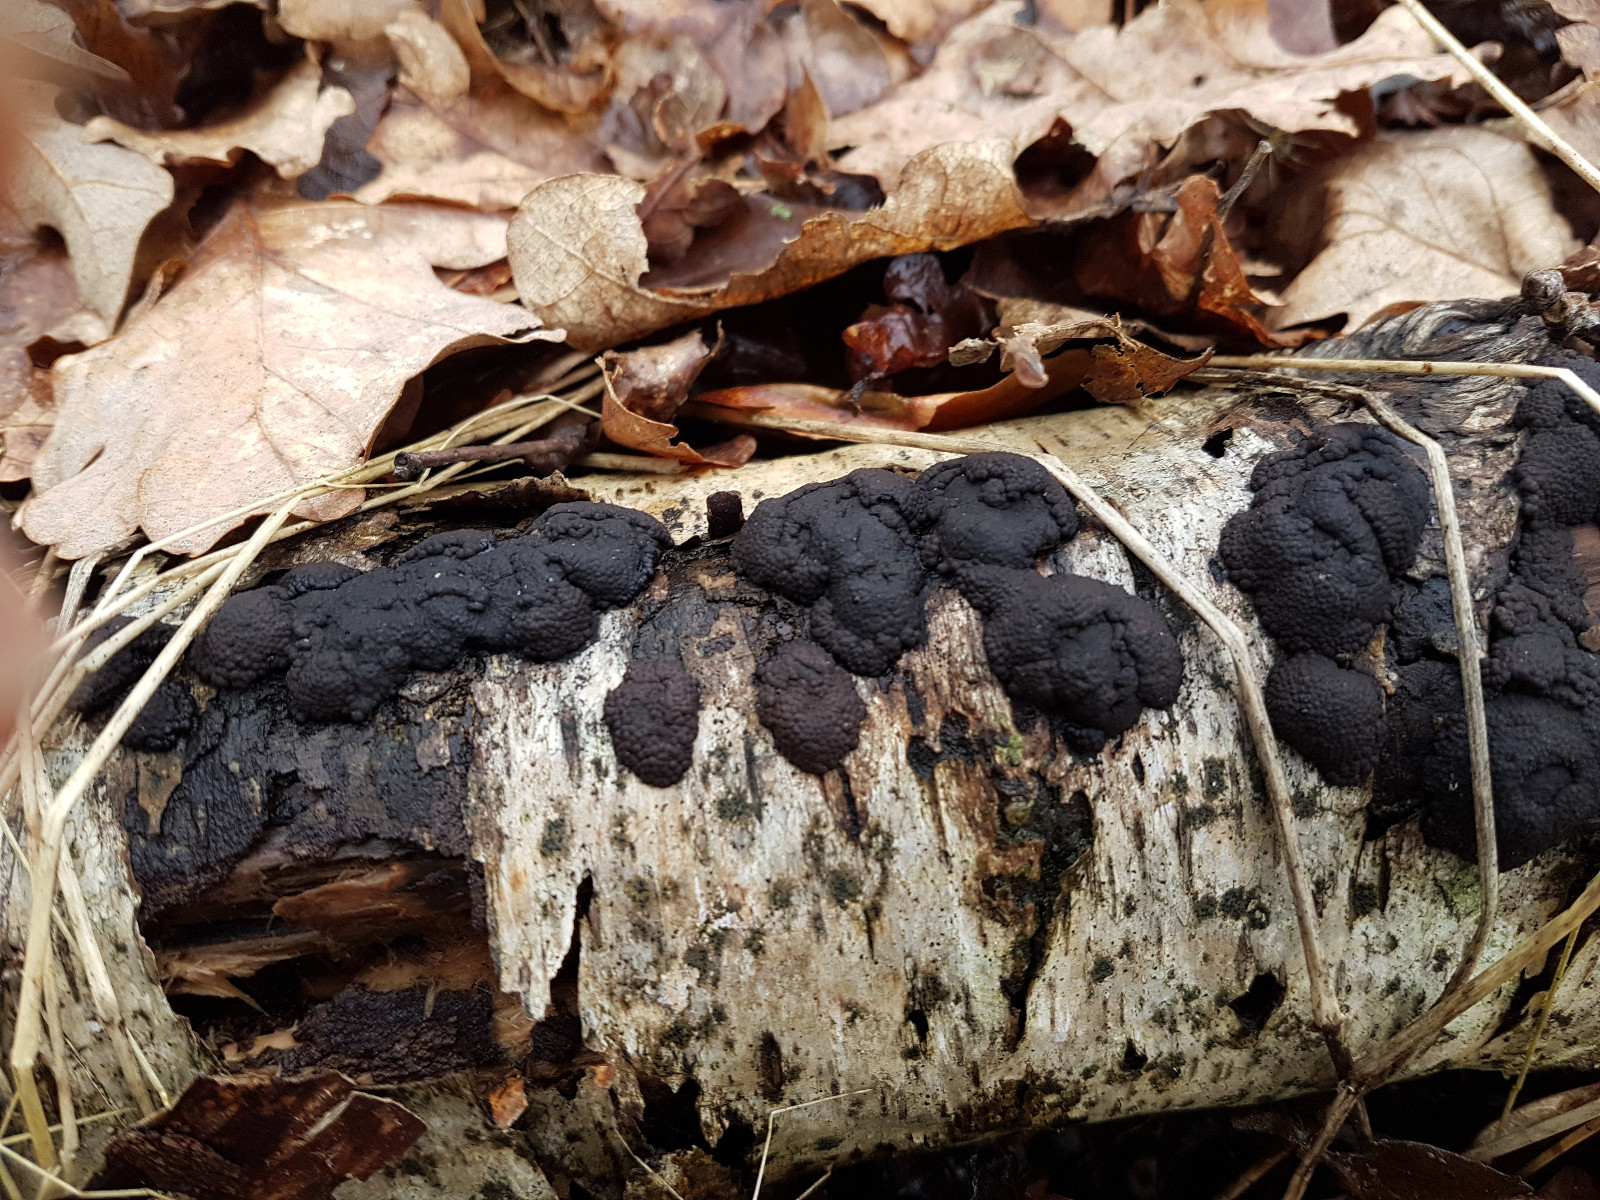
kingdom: Fungi
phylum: Ascomycota
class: Sordariomycetes
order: Xylariales
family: Hypoxylaceae
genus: Jackrogersella
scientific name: Jackrogersella multiformis
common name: foranderlig kulbær
